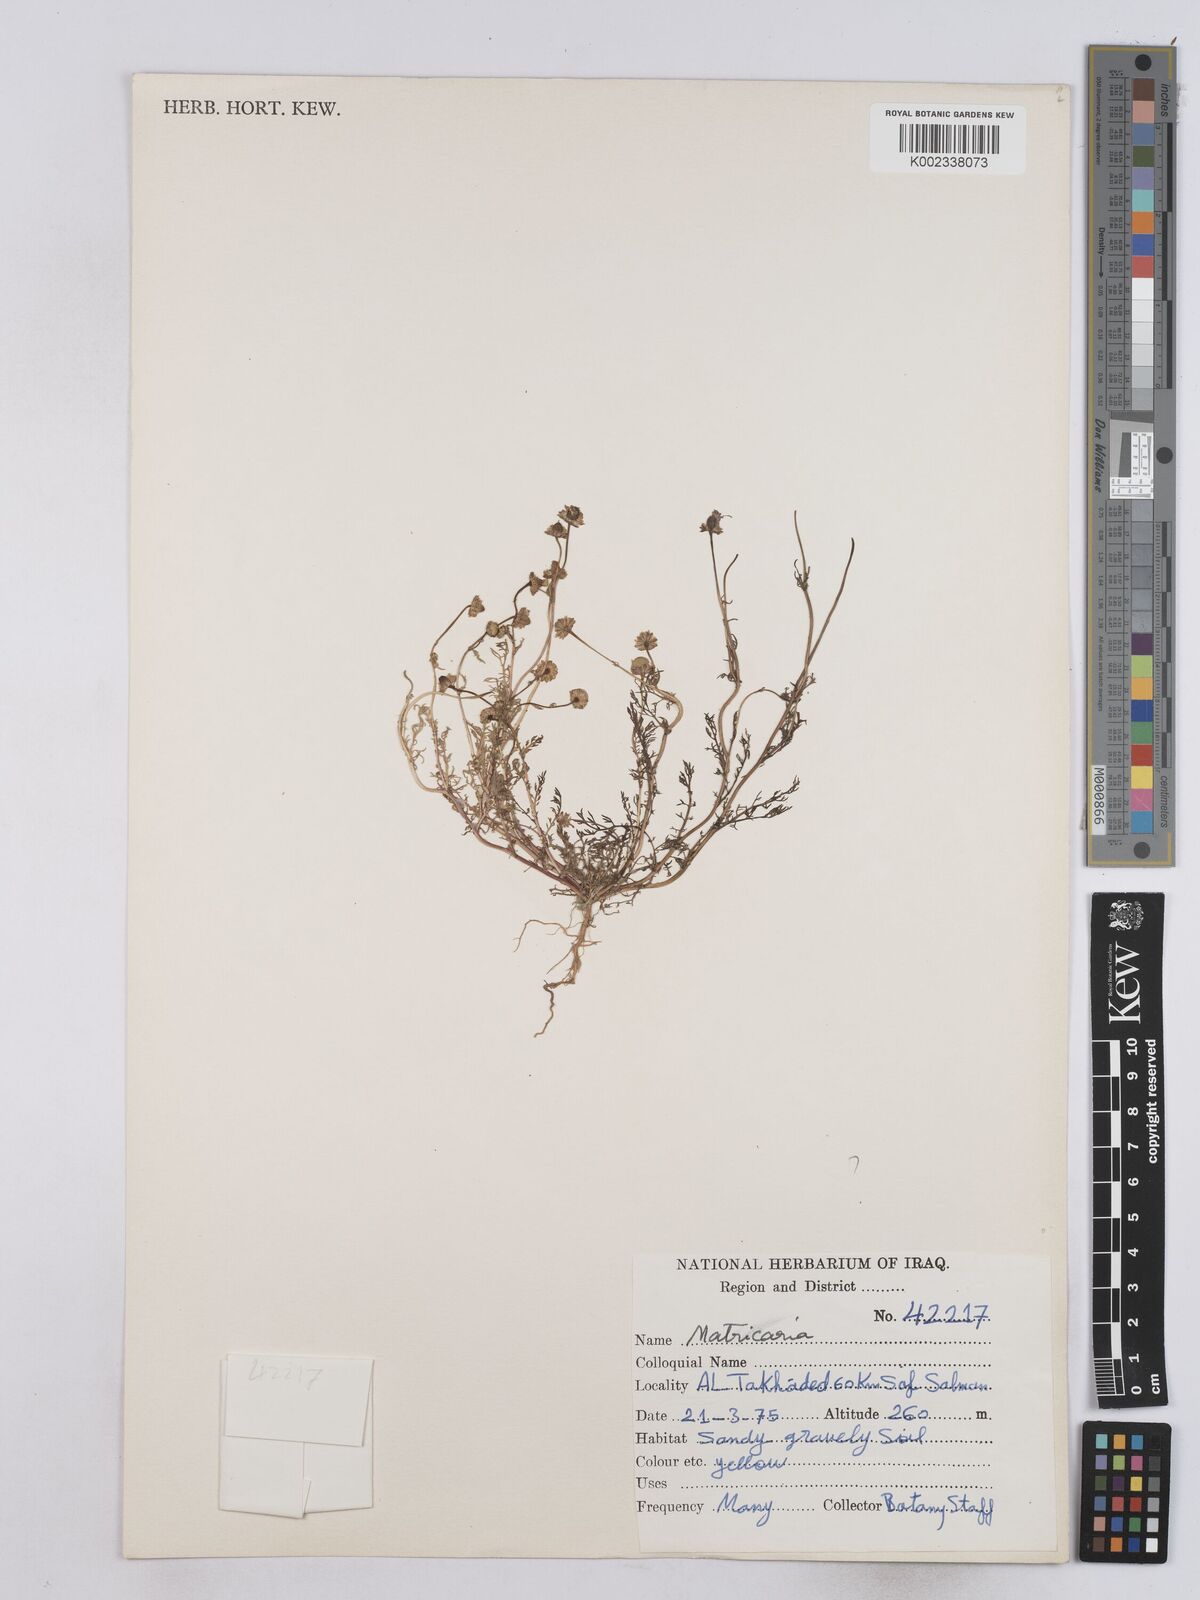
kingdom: Plantae
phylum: Tracheophyta
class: Magnoliopsida
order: Asterales
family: Asteraceae
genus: Matricaria
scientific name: Matricaria aurea
